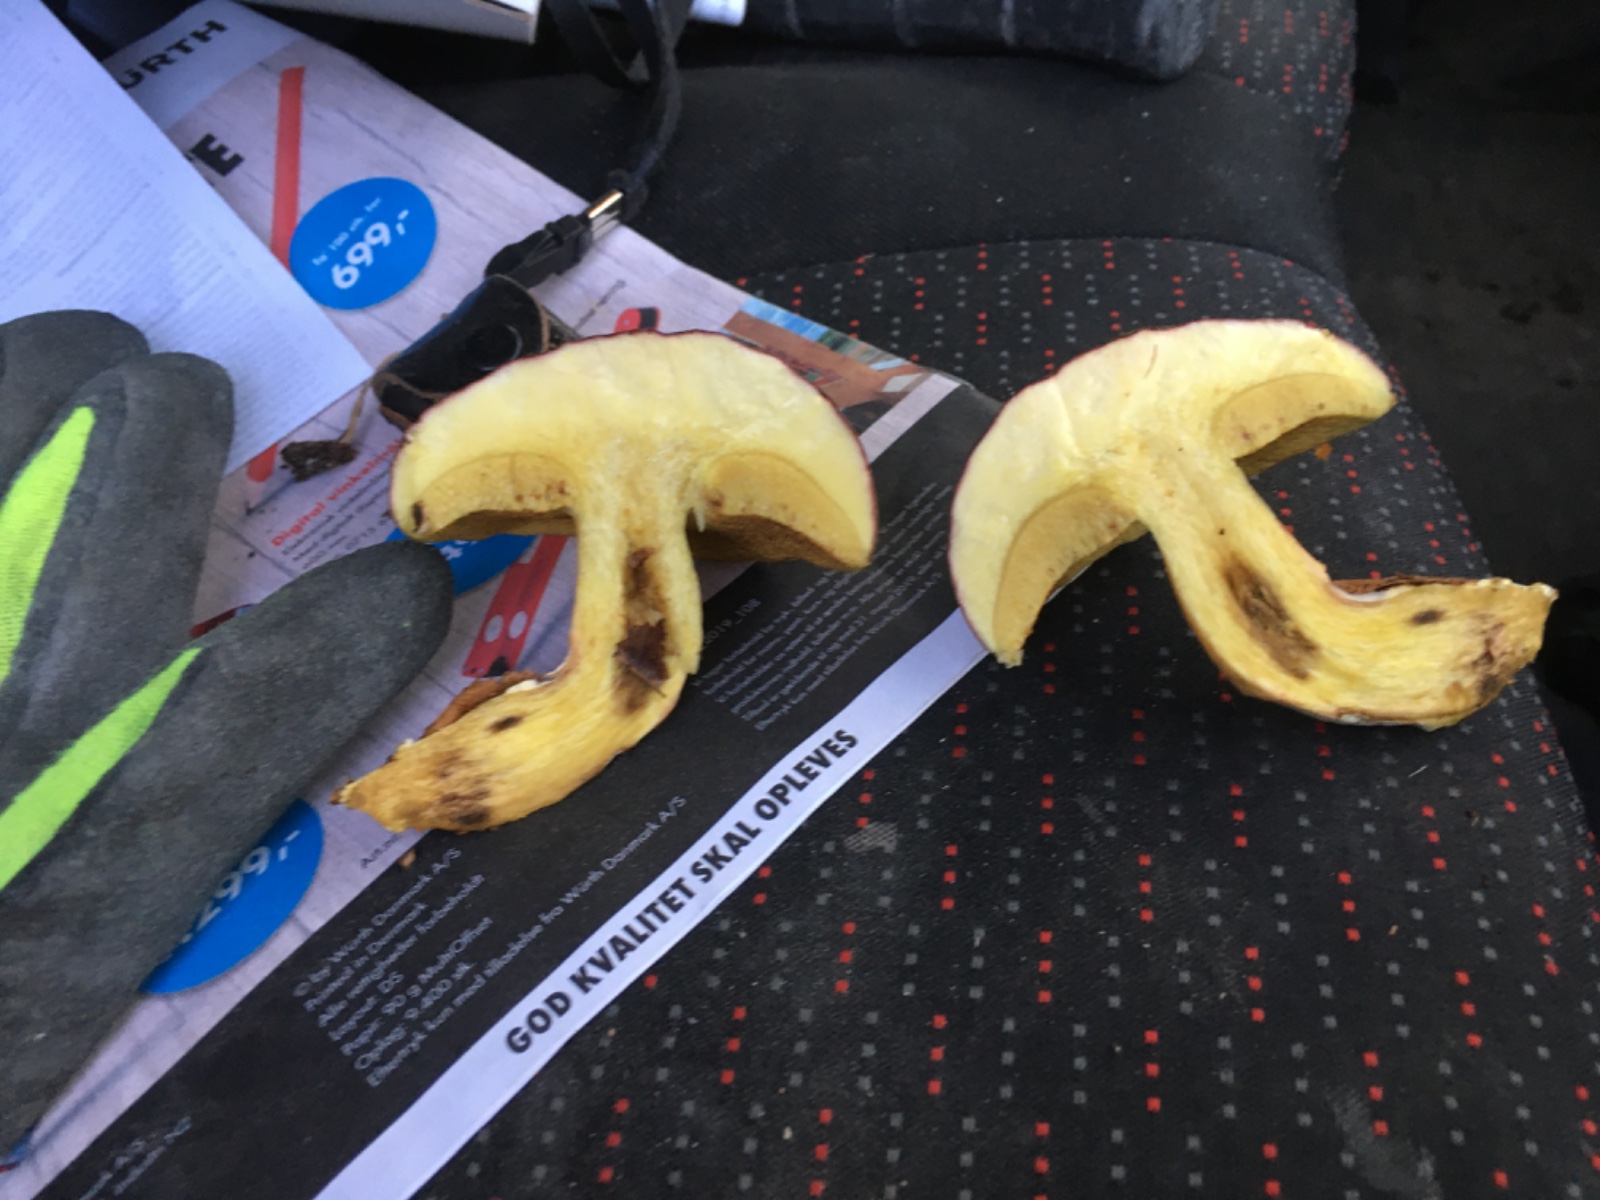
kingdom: Fungi
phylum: Basidiomycota
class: Agaricomycetes
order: Boletales
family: Boletaceae
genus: Xerocomellus
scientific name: Xerocomellus pruinatus
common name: dugget rørhat
